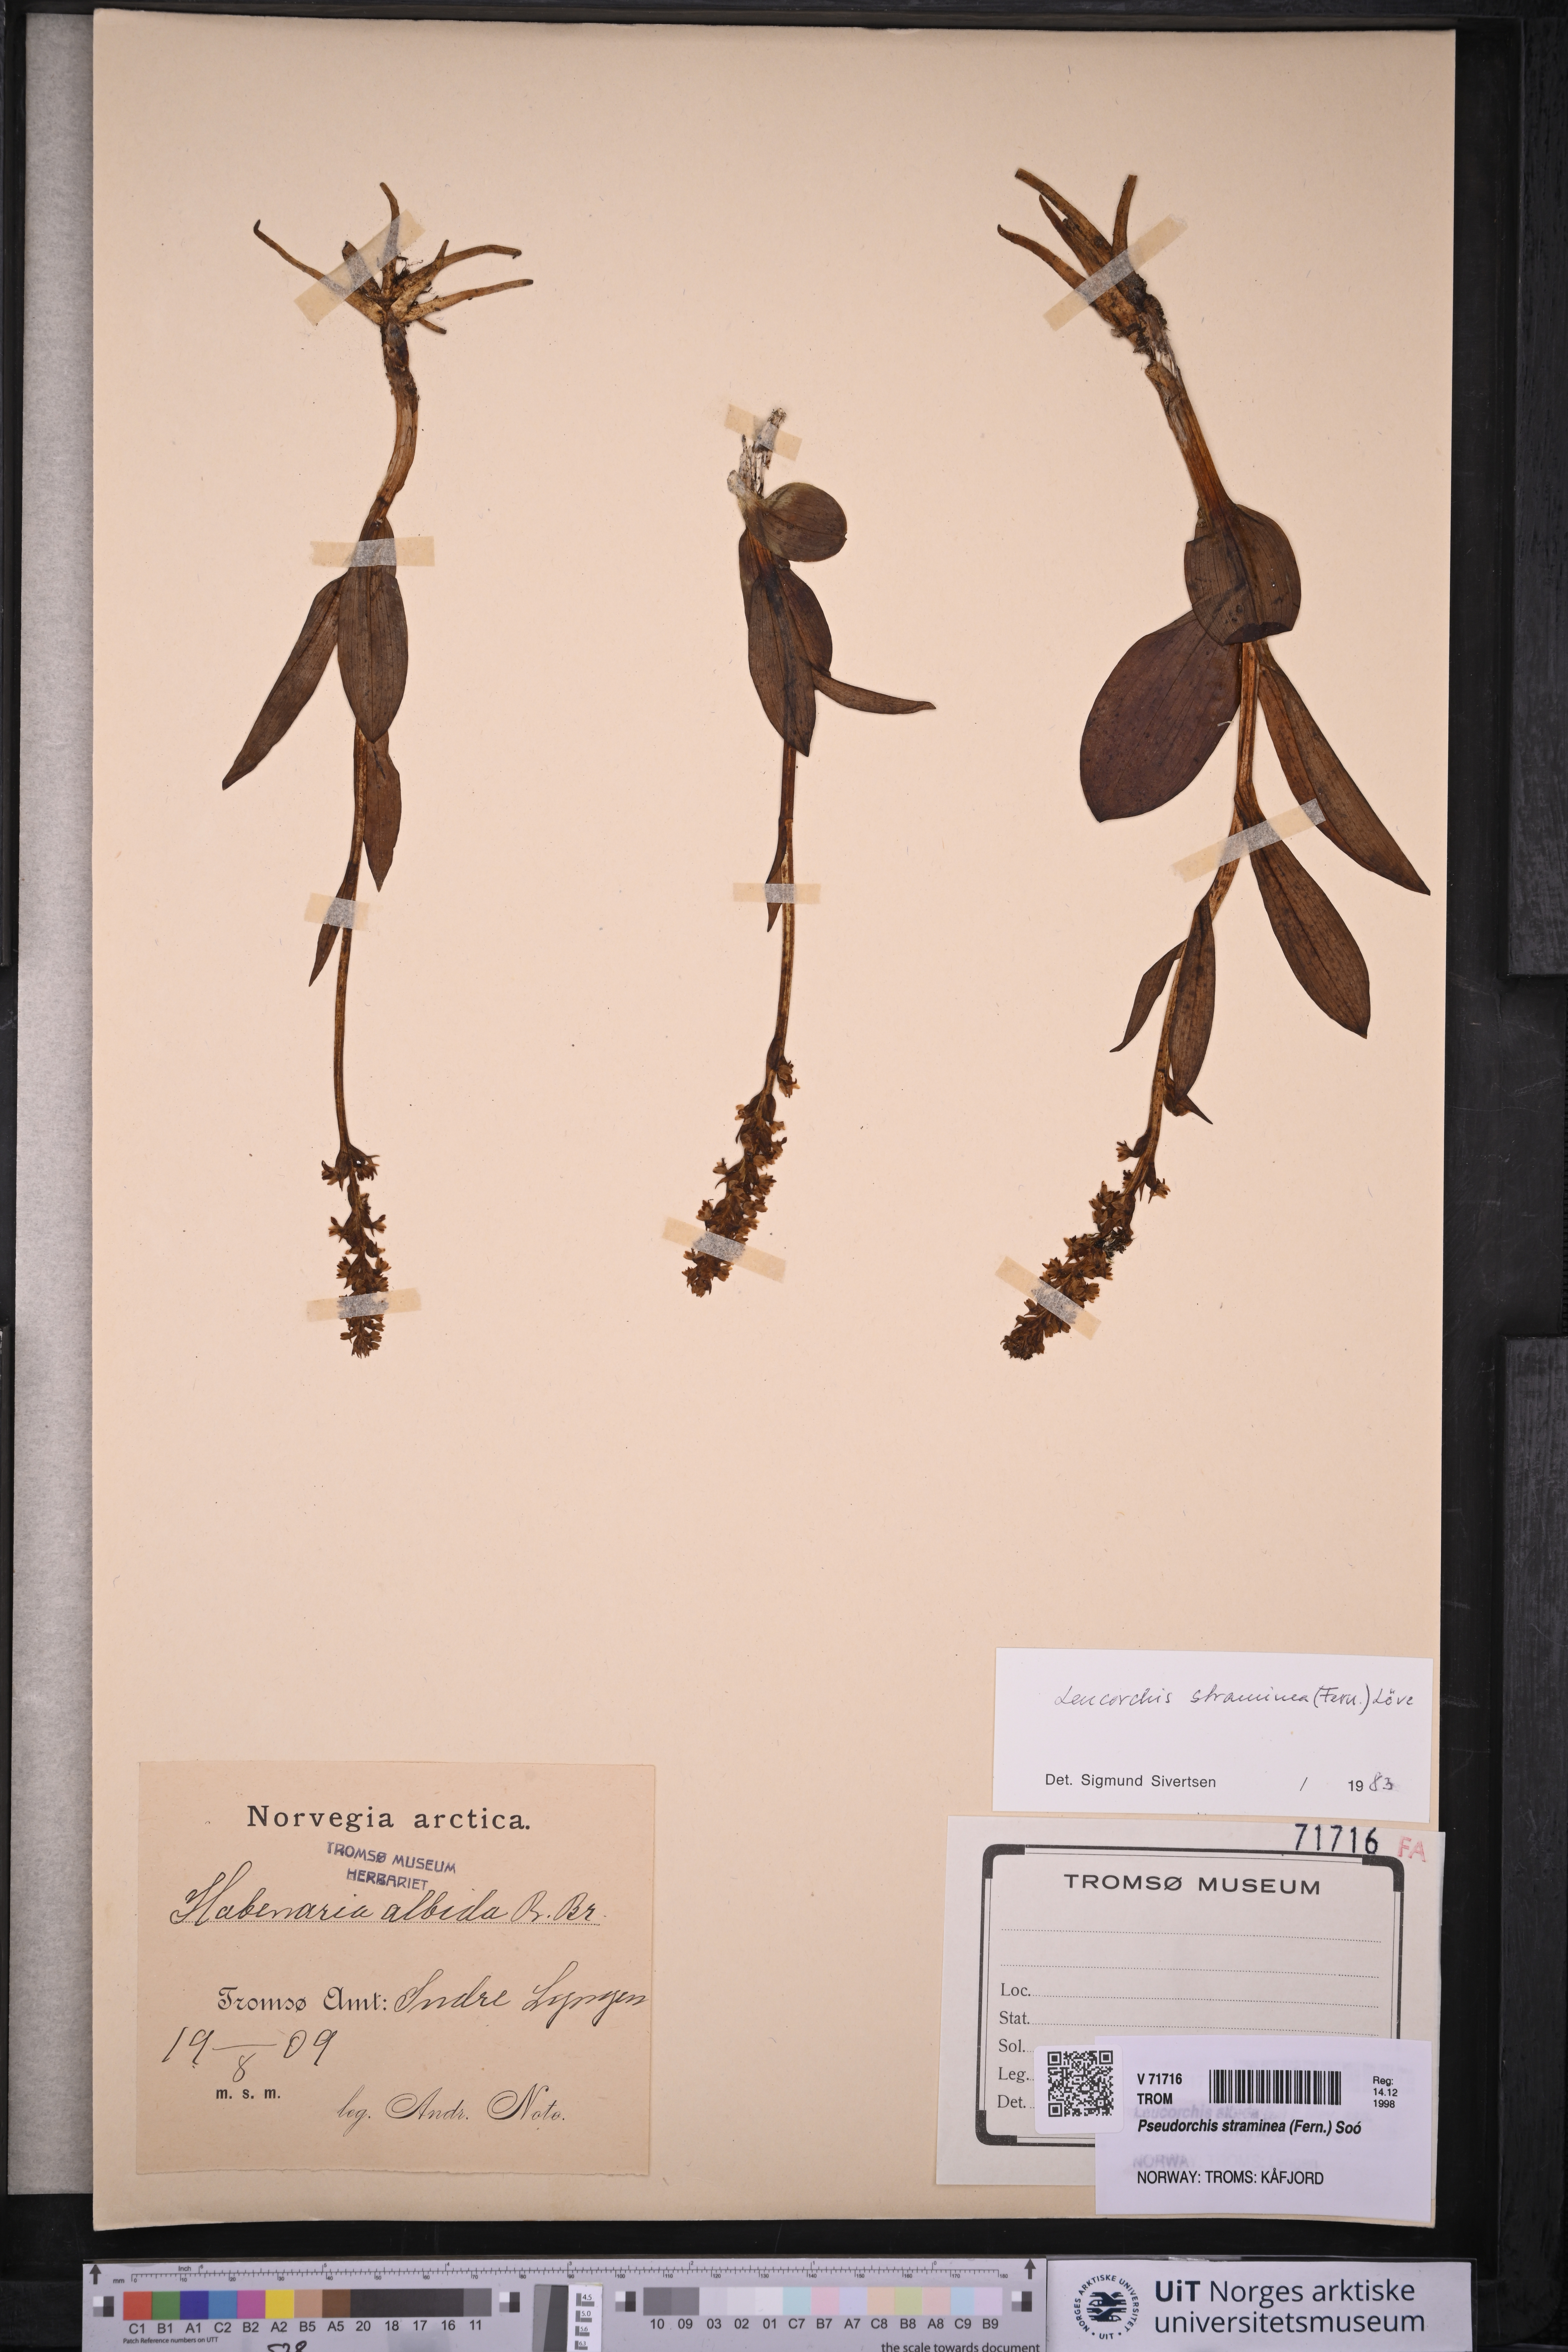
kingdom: Plantae
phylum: Tracheophyta
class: Liliopsida
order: Asparagales
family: Orchidaceae
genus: Pseudorchis
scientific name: Pseudorchis straminea
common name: Vanilla-scented bog orchid
